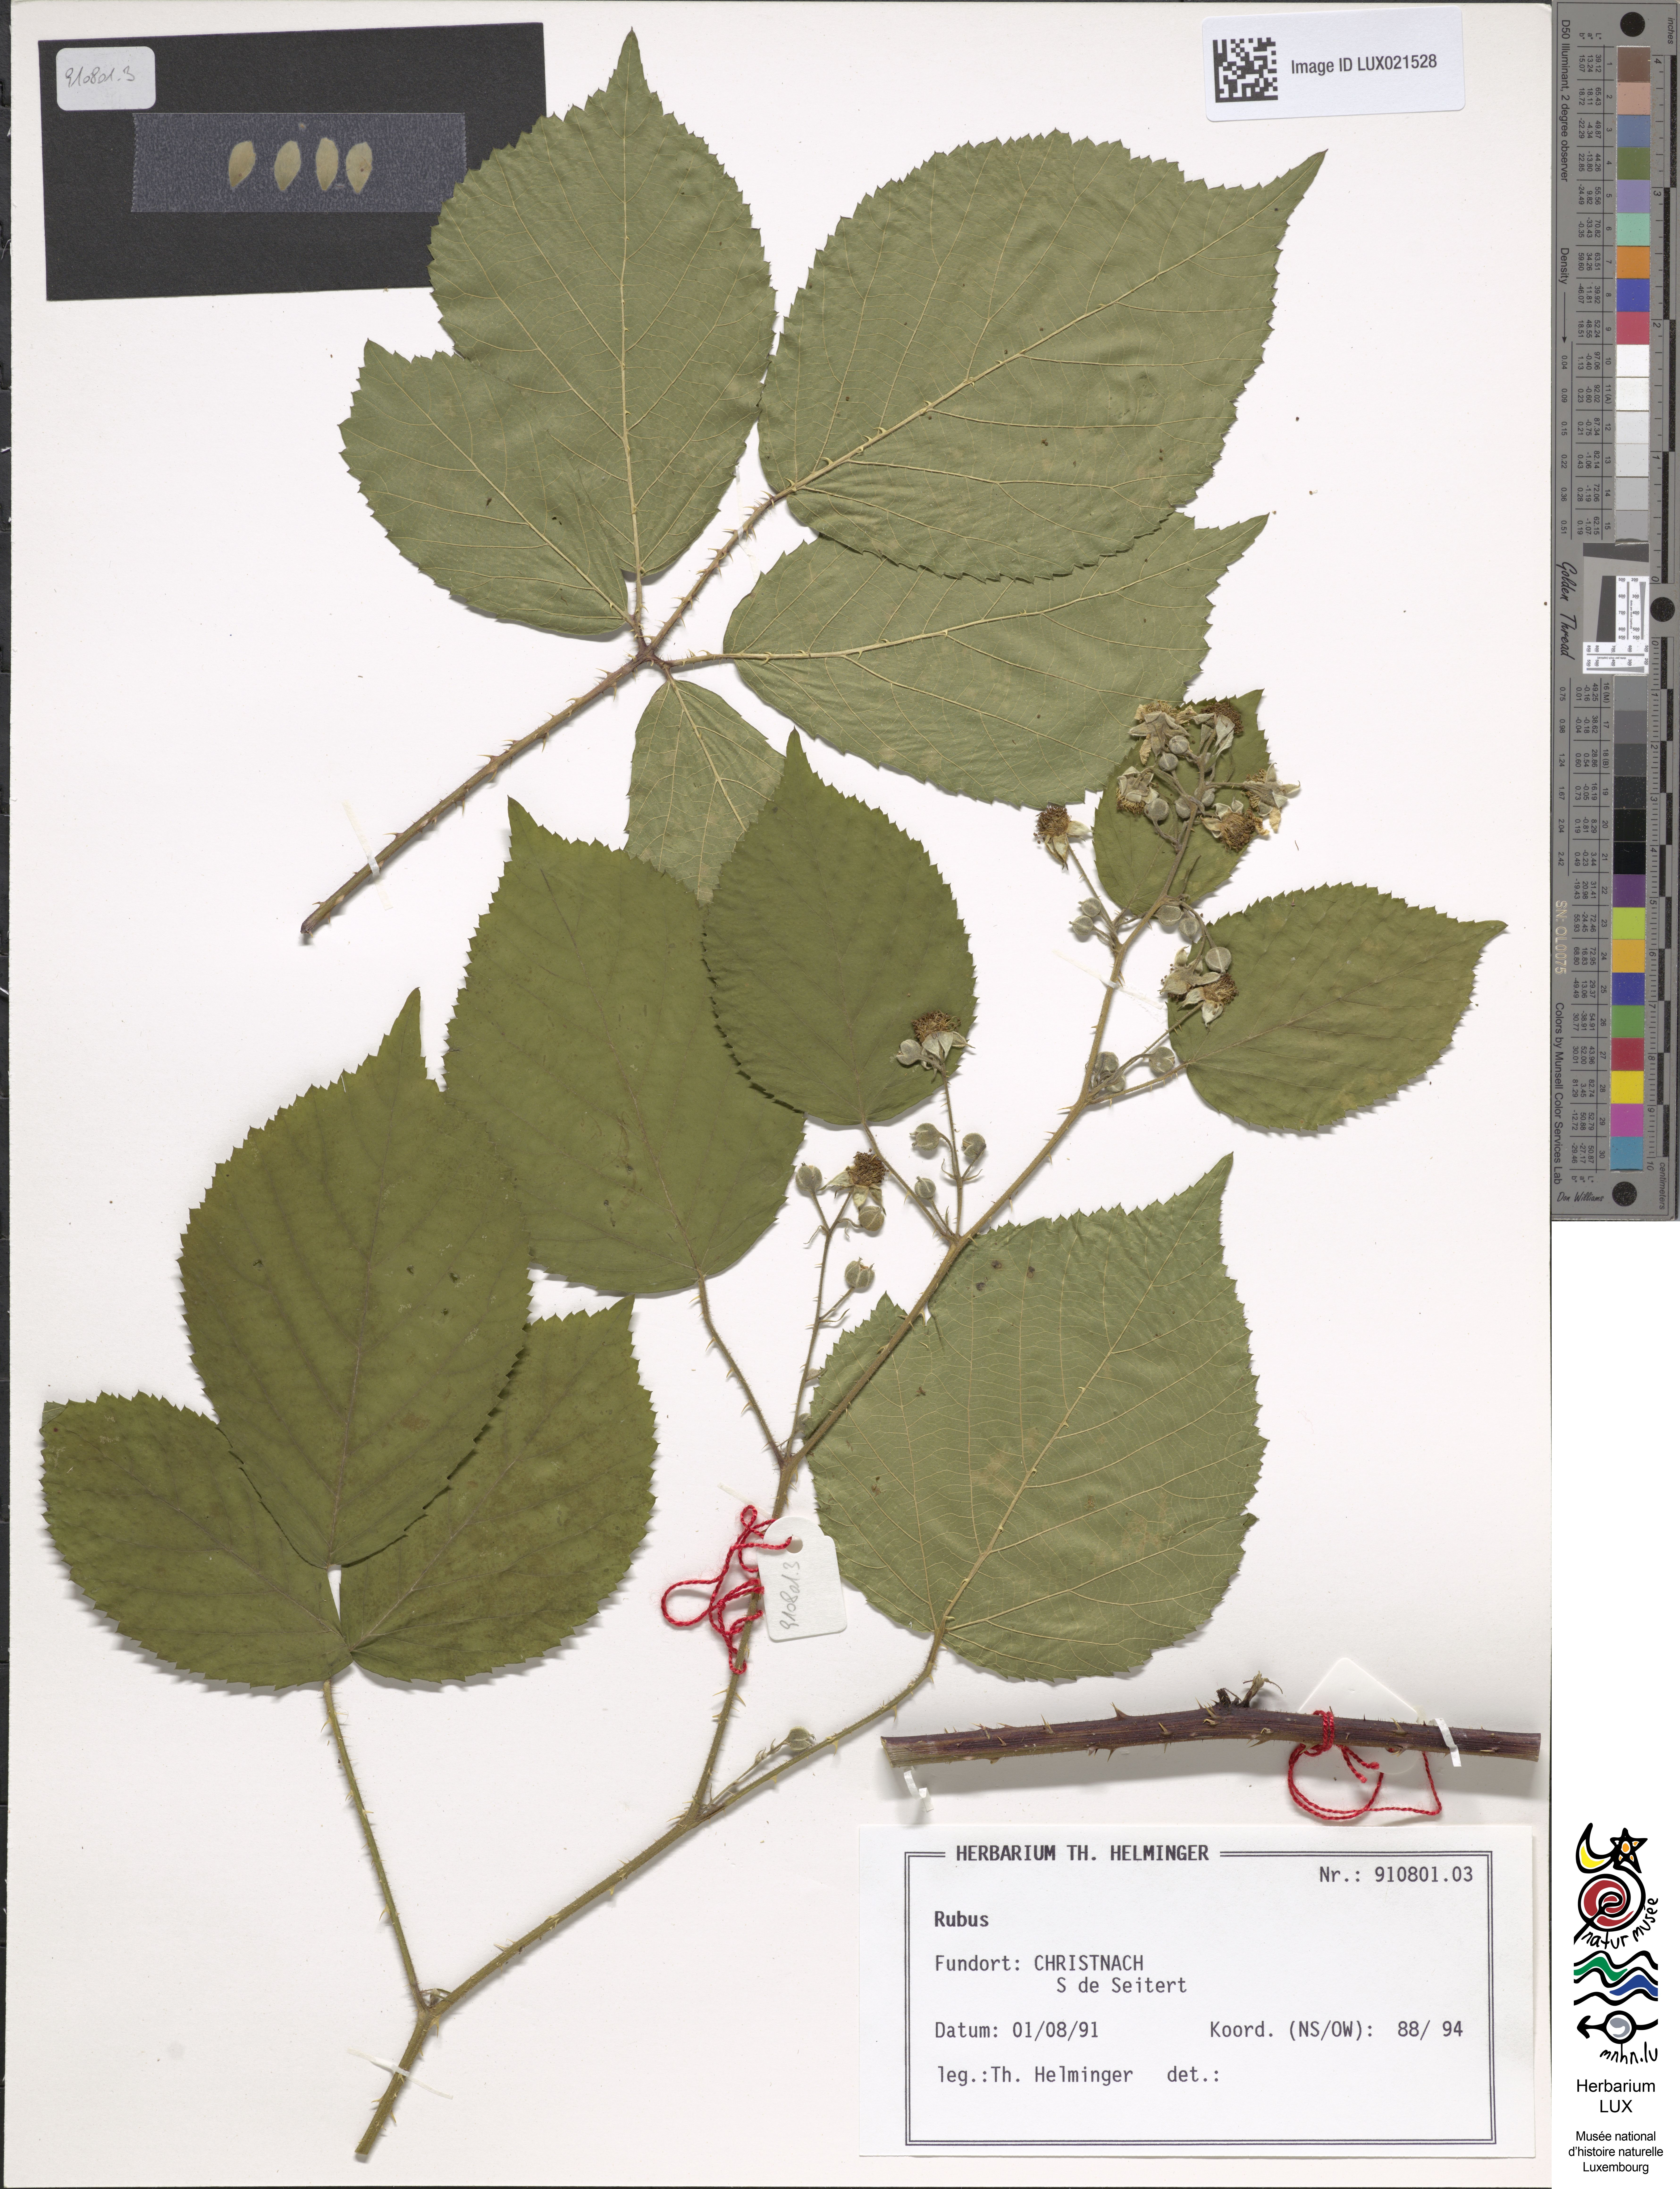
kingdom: Plantae
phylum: Tracheophyta
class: Magnoliopsida
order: Rosales
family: Rosaceae
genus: Rubus
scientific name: Rubus
